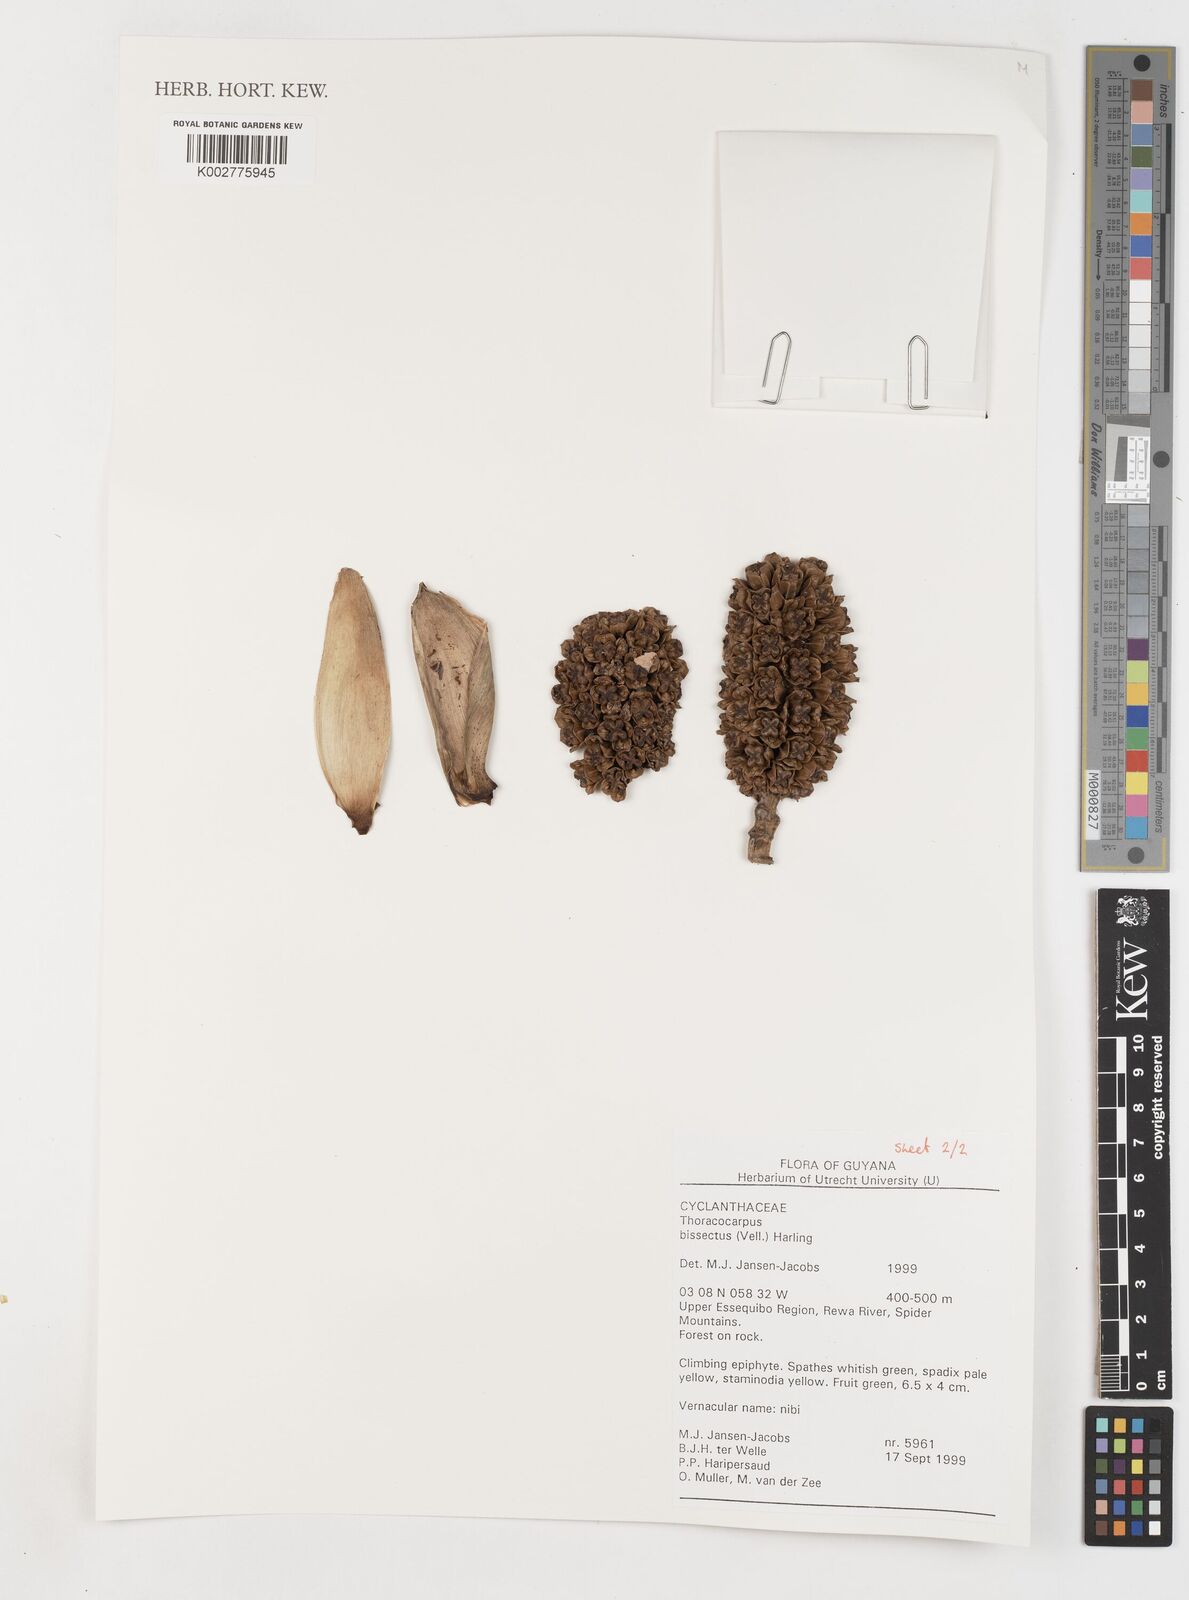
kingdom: Plantae
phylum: Tracheophyta
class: Liliopsida
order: Pandanales
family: Cyclanthaceae
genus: Thoracocarpus
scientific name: Thoracocarpus bissectus
